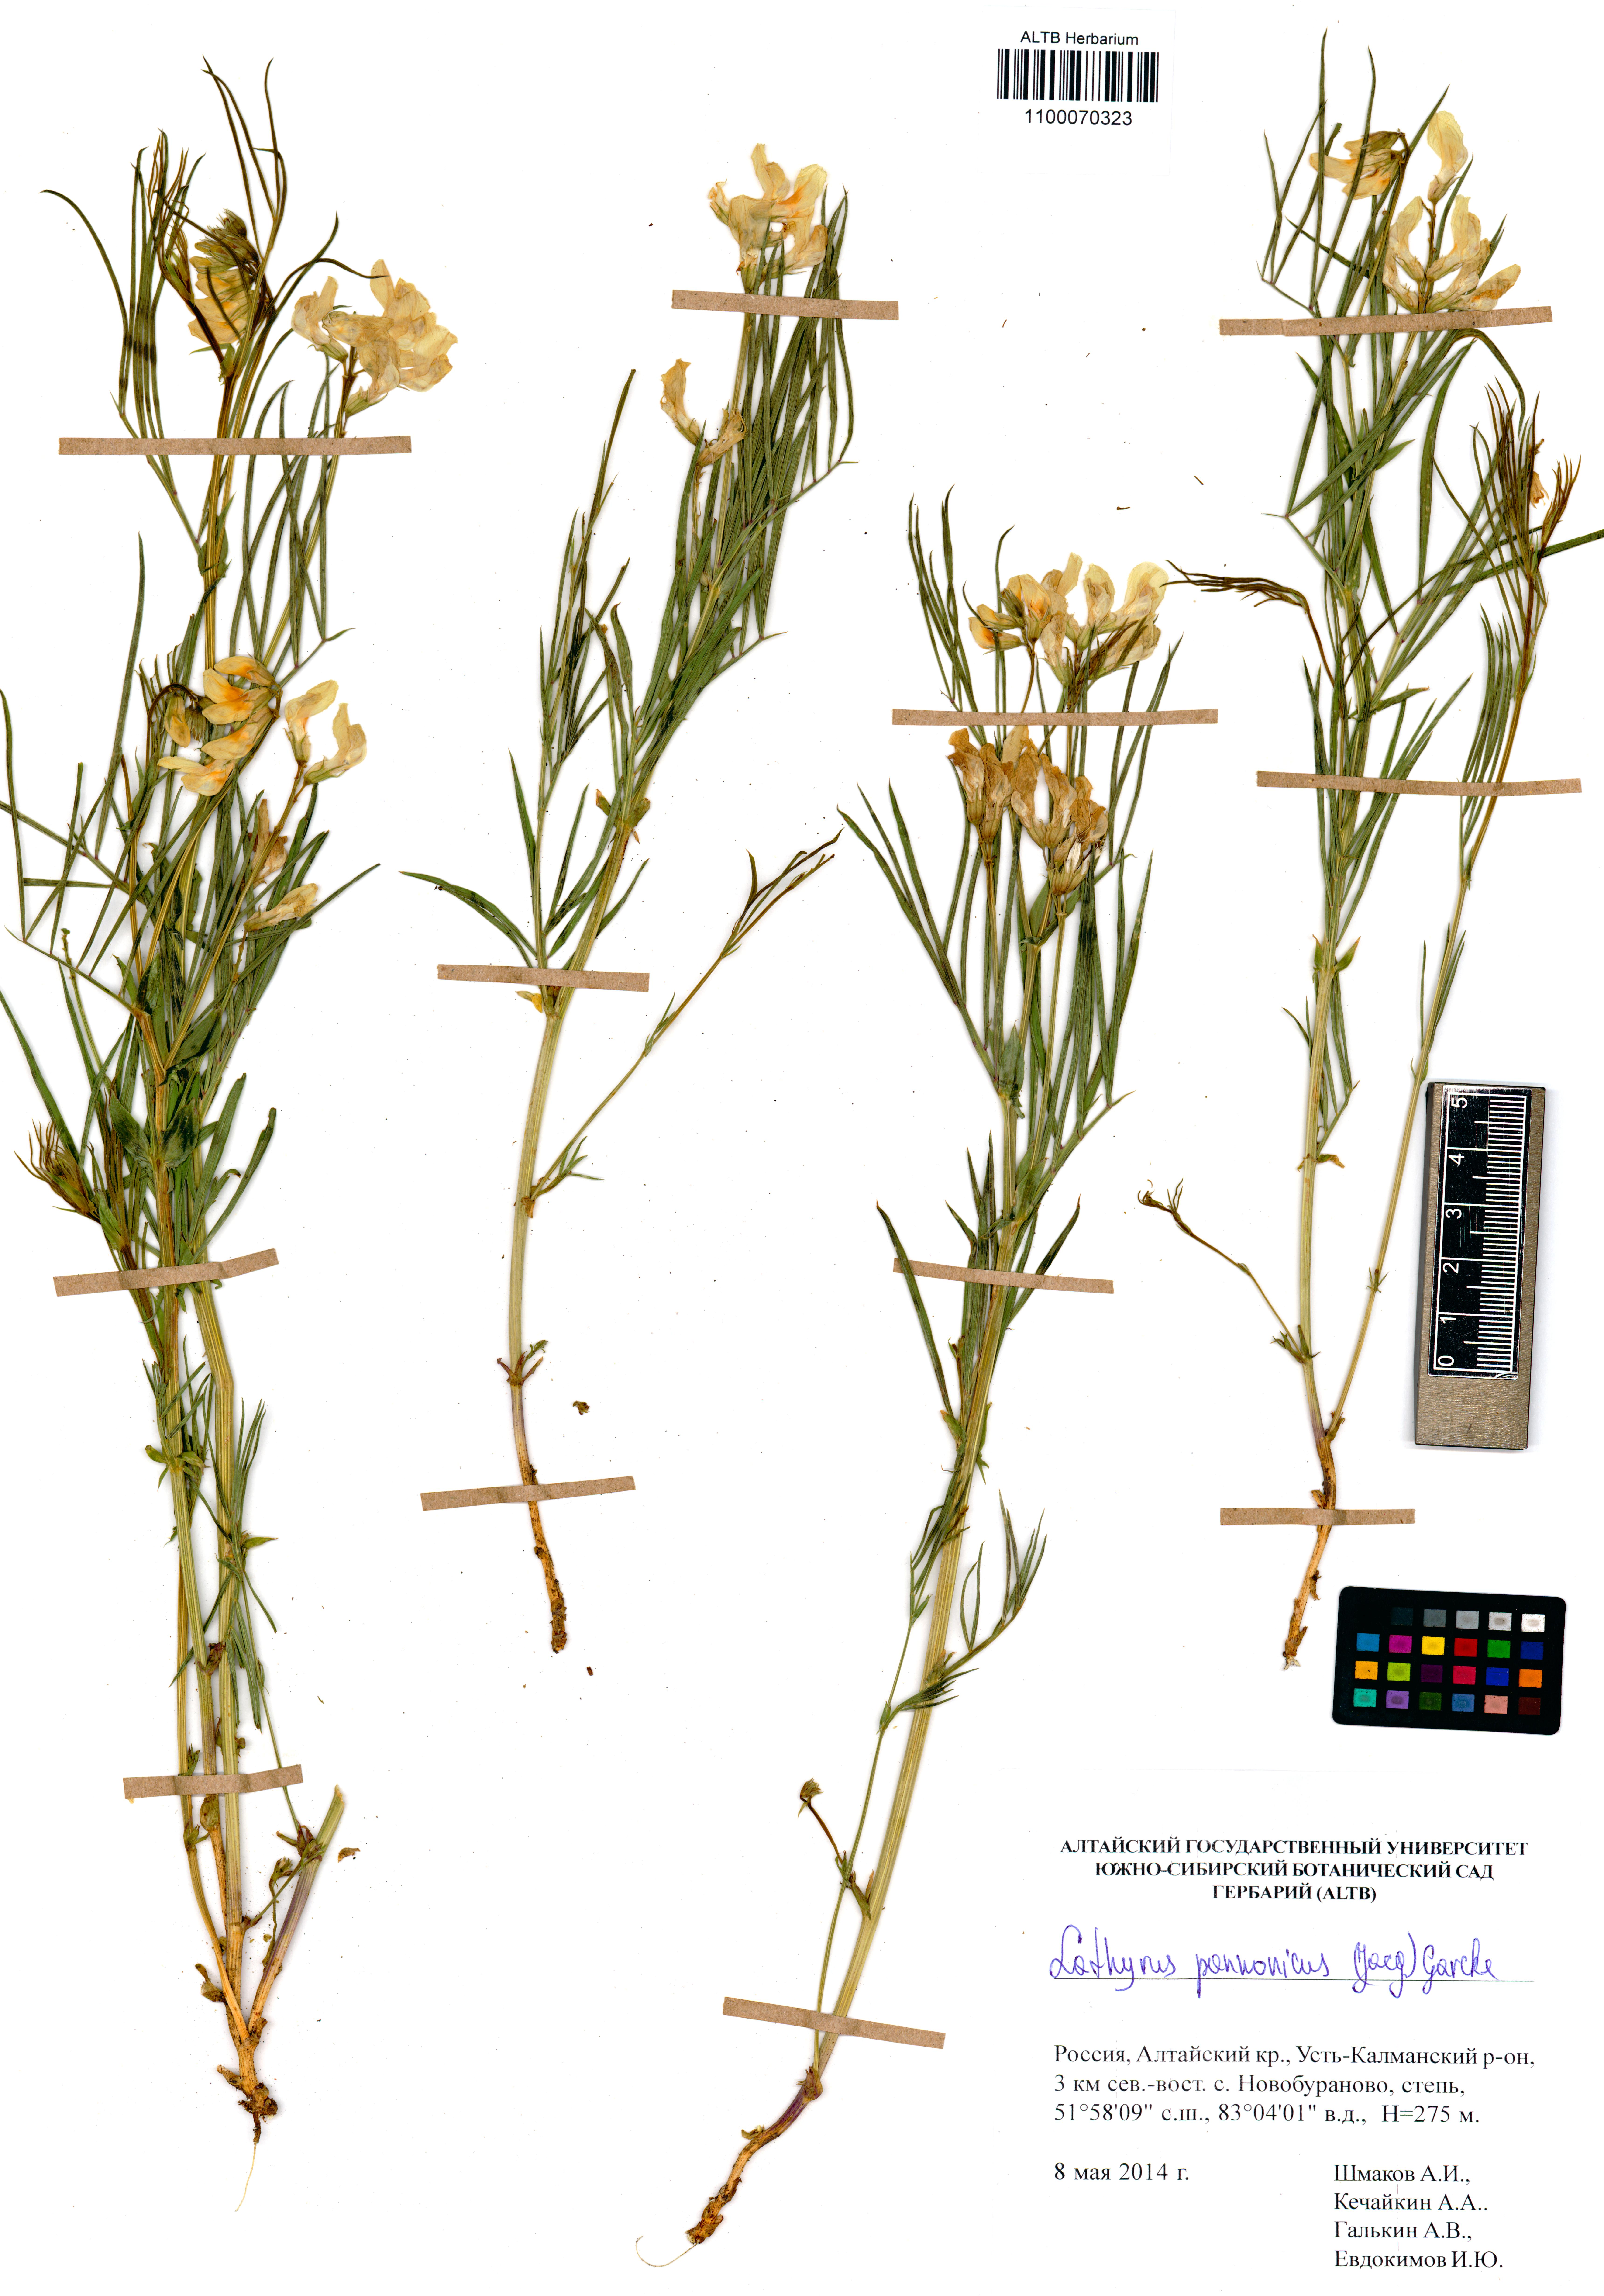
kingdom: Plantae
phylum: Tracheophyta
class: Magnoliopsida
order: Fabales
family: Fabaceae
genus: Lathyrus
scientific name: Lathyrus pannonicus
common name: Pea
